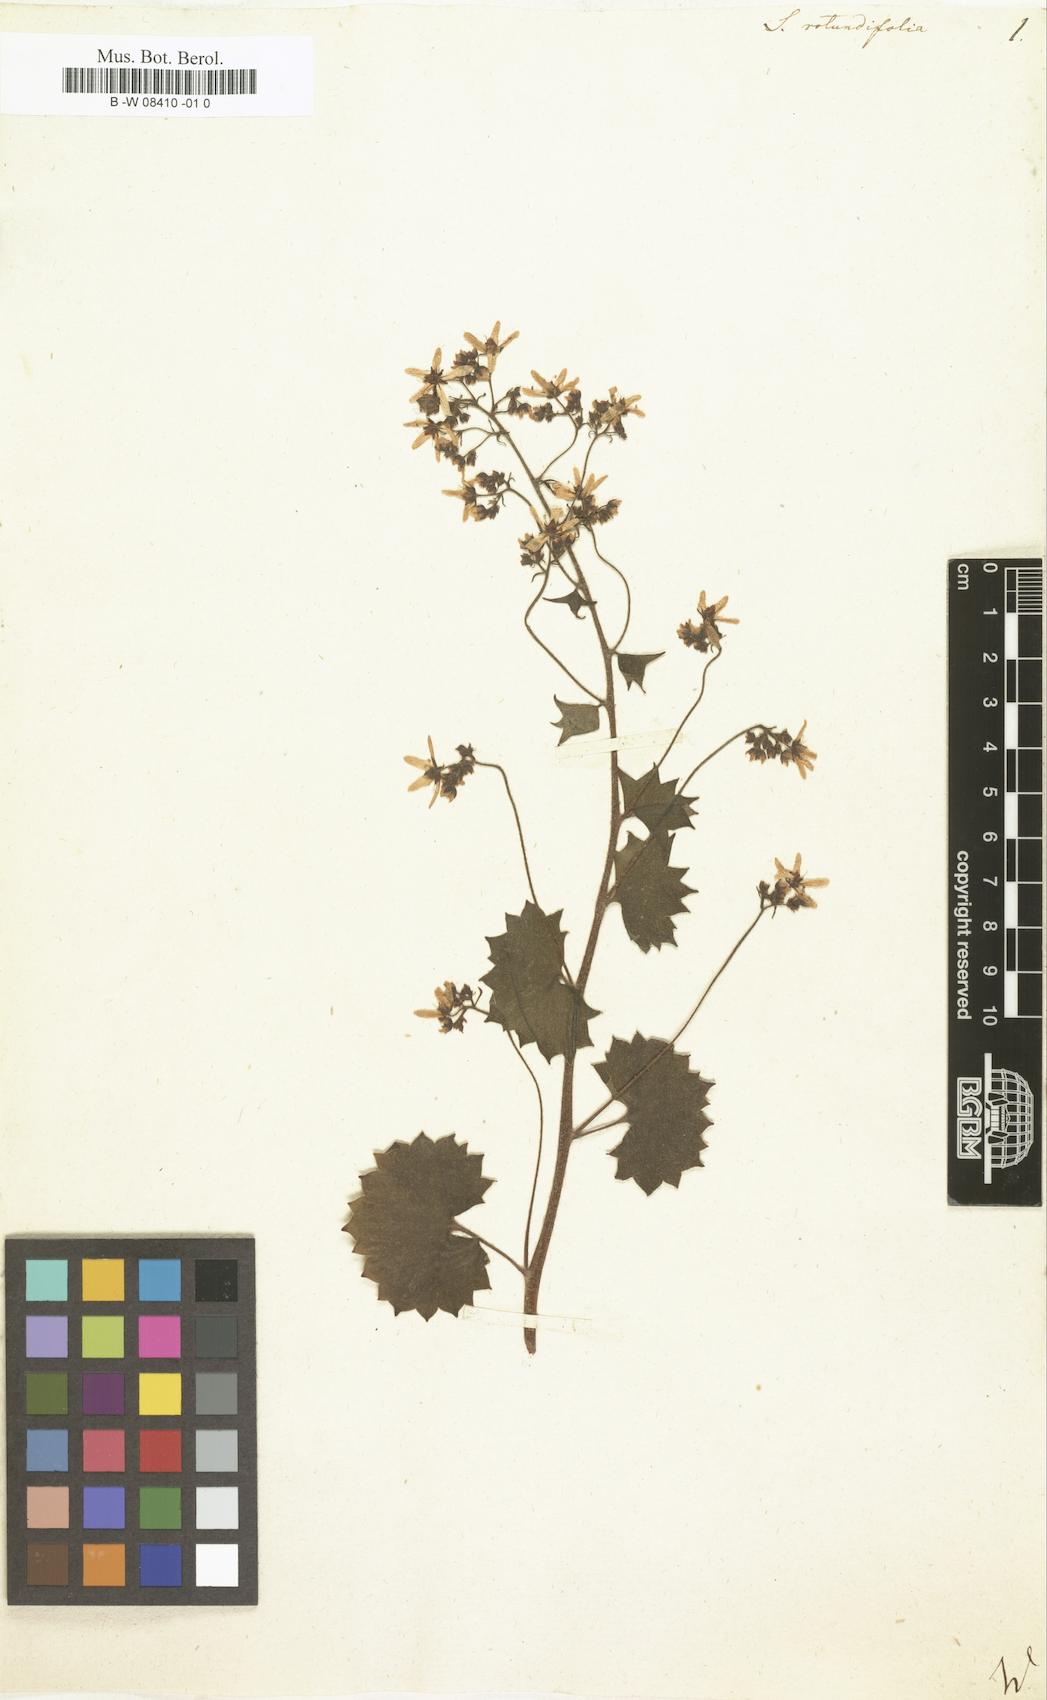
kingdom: Plantae
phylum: Tracheophyta
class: Magnoliopsida
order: Saxifragales
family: Saxifragaceae
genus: Saxifraga
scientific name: Saxifraga rotundifolia
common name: Round-leaved saxifrage
